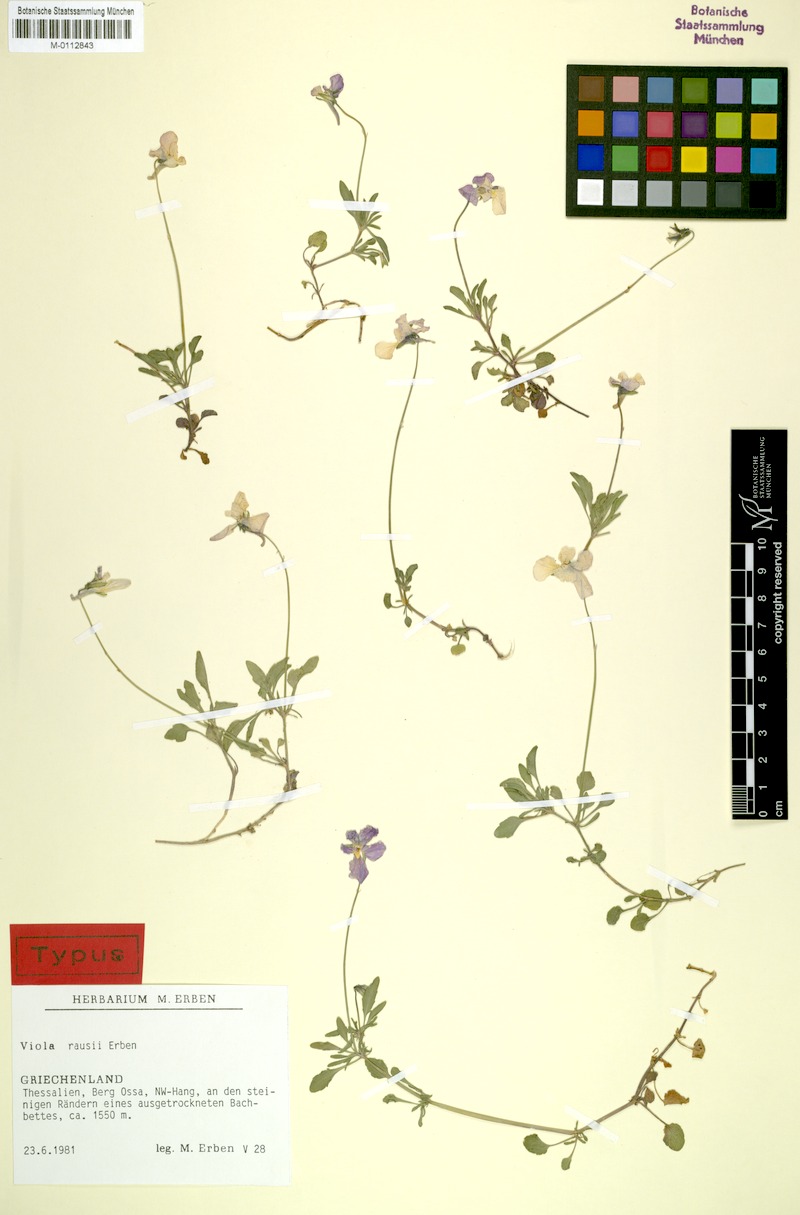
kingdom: Plantae
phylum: Tracheophyta
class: Magnoliopsida
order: Malpighiales
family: Violaceae
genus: Viola
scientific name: Viola rausii
